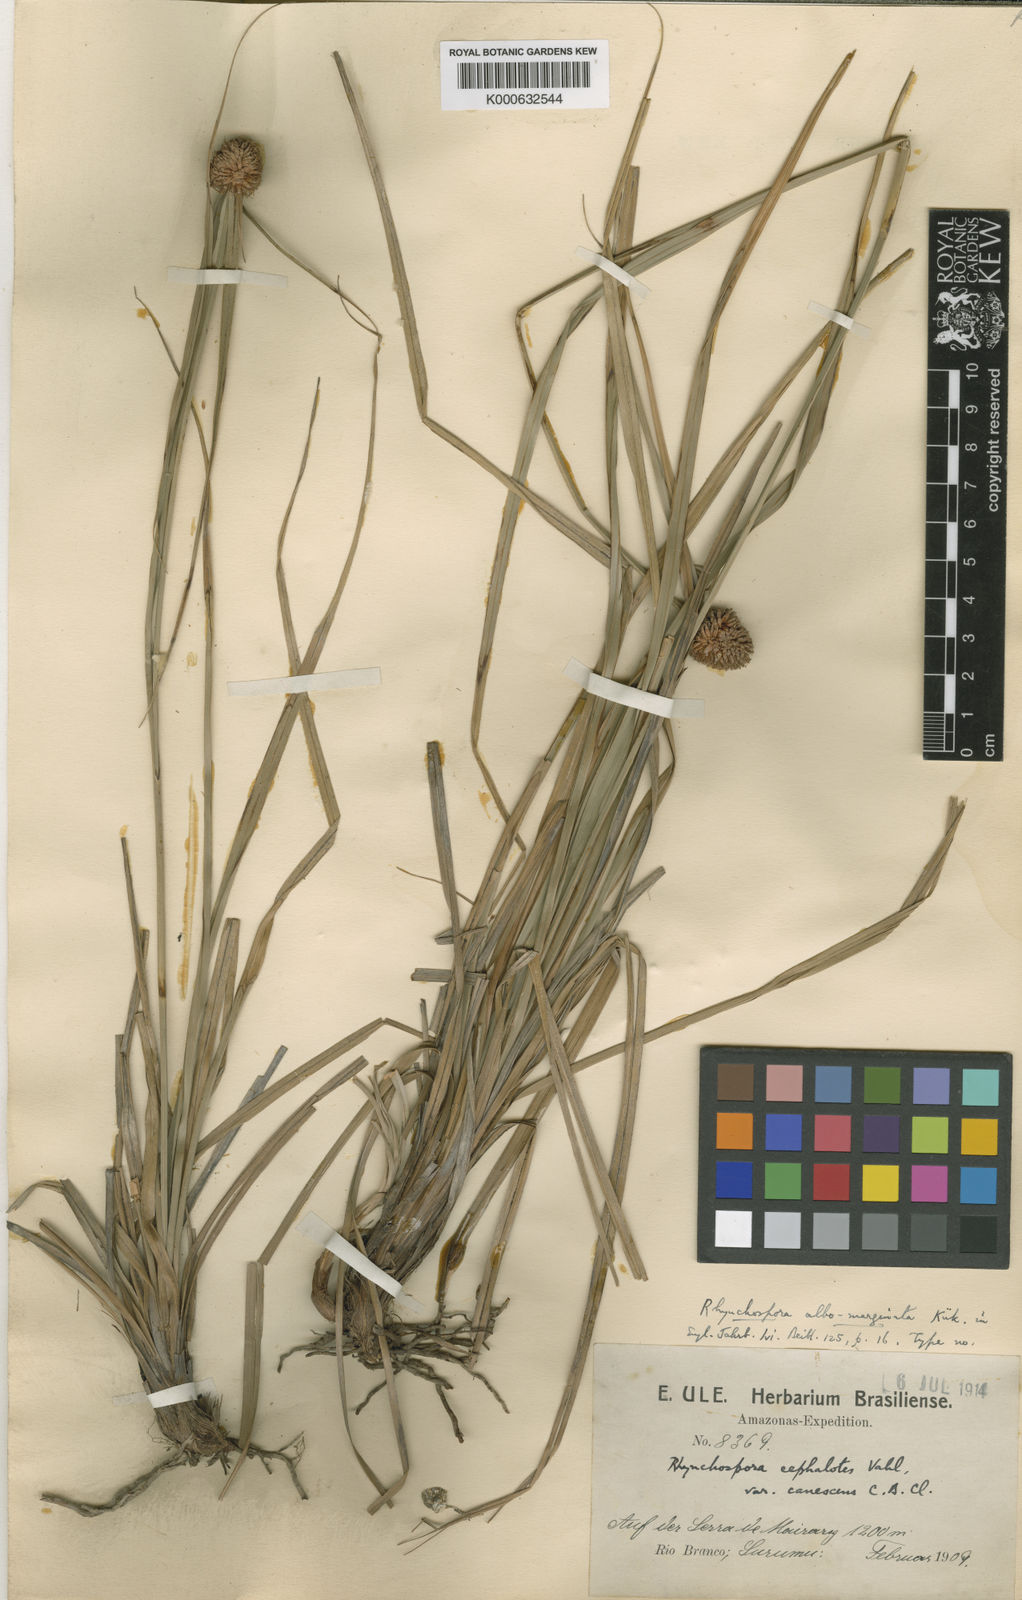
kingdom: Plantae
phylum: Tracheophyta
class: Liliopsida
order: Poales
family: Cyperaceae
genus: Rhynchospora
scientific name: Rhynchospora
